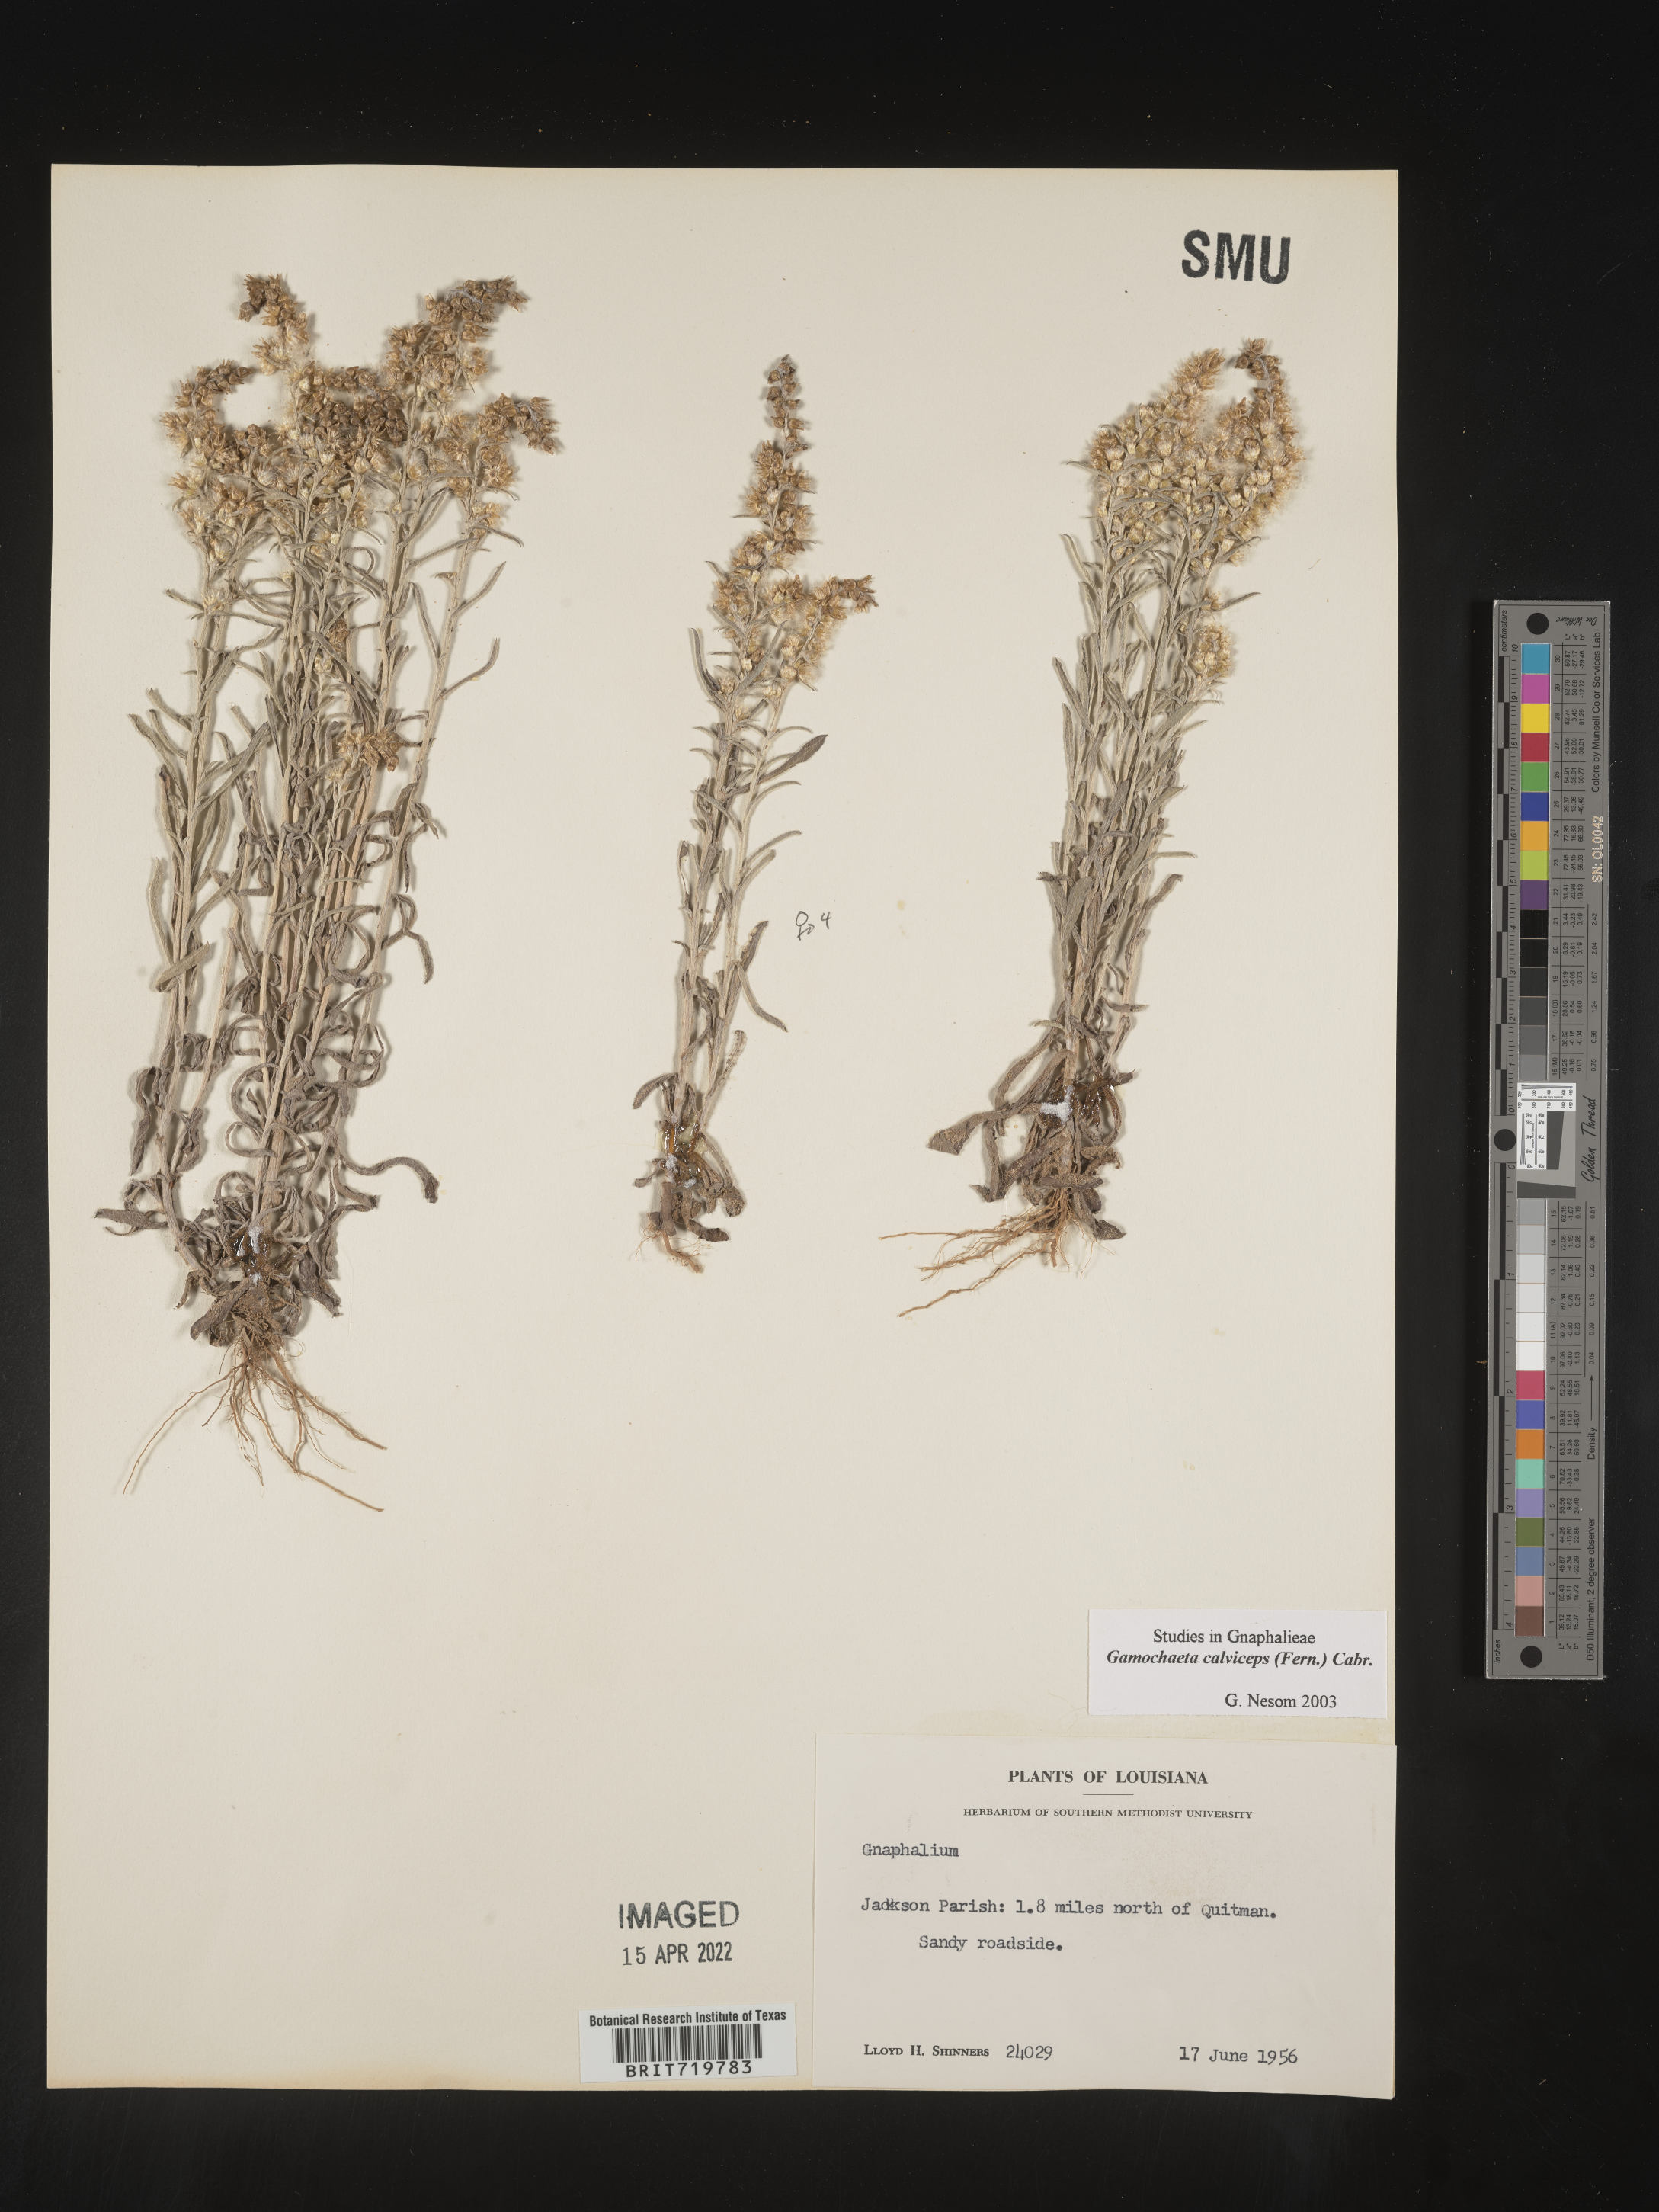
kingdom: Plantae
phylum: Tracheophyta
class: Magnoliopsida
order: Asterales
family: Asteraceae
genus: Gamochaeta
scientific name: Gamochaeta calviceps
